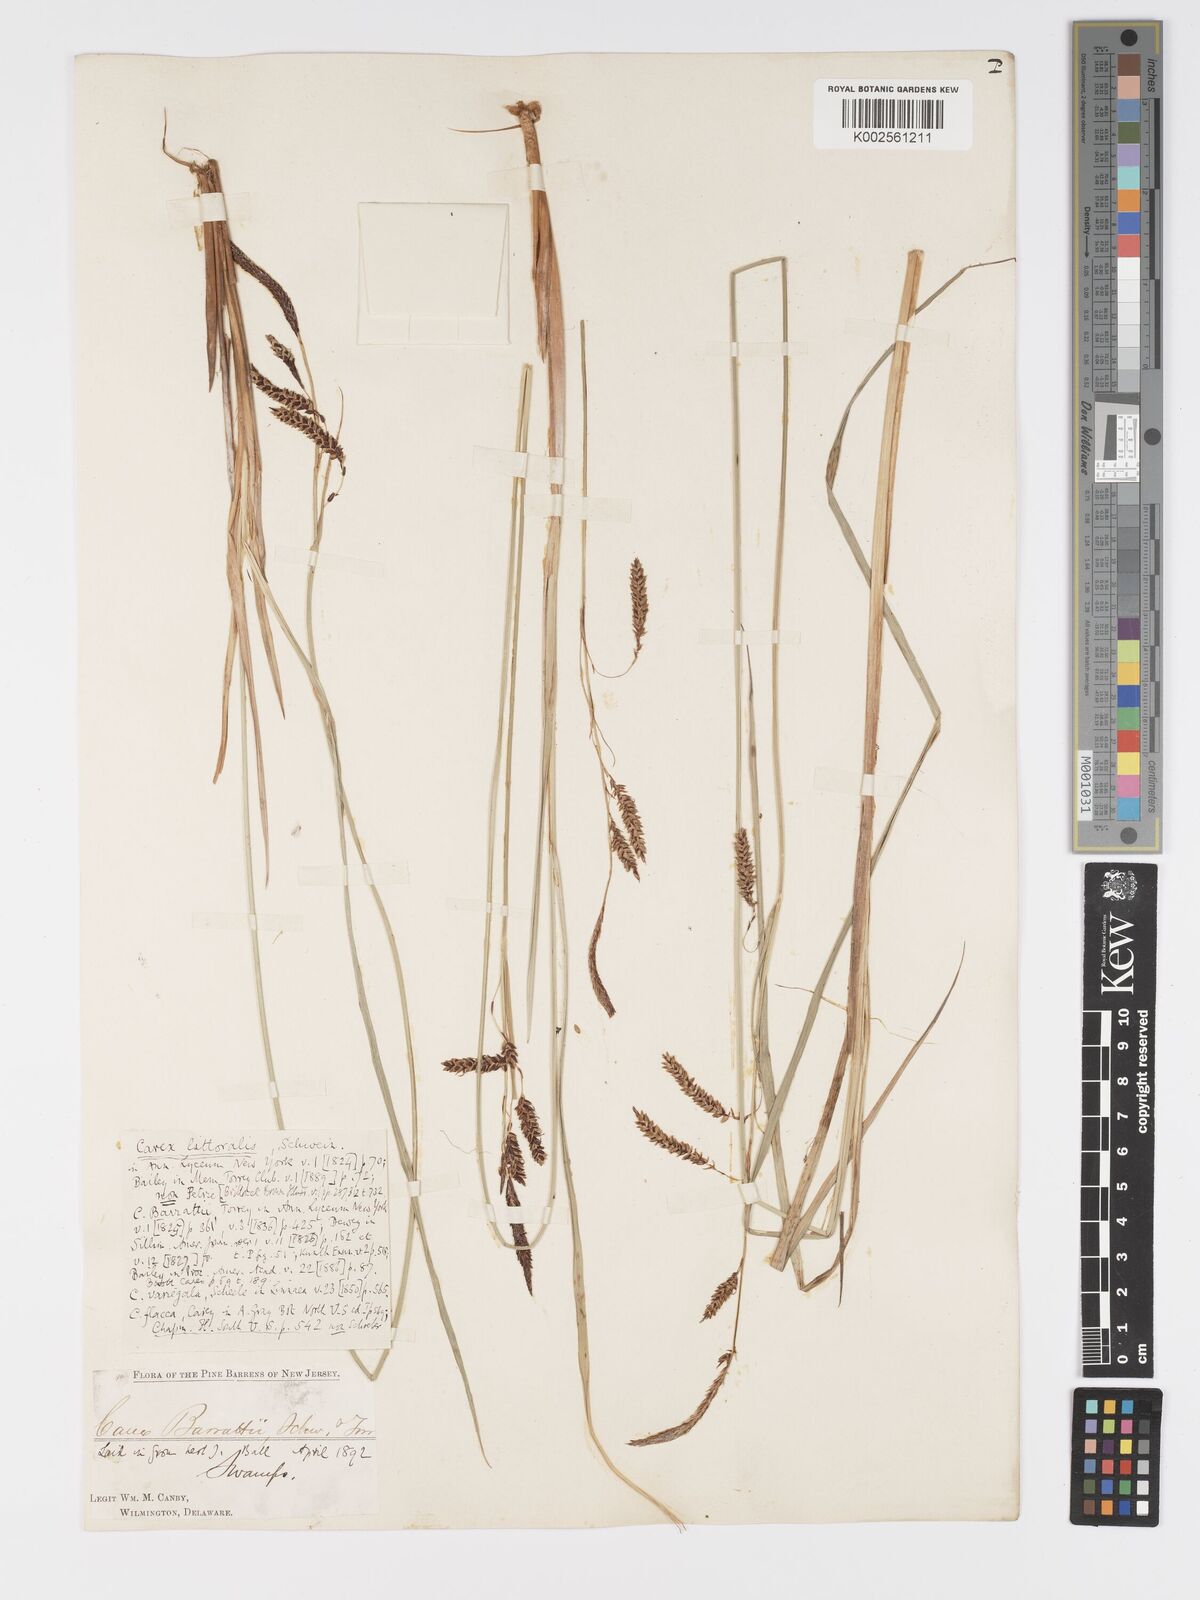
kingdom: Plantae
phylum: Tracheophyta
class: Liliopsida
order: Poales
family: Cyperaceae
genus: Carex
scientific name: Carex barrattii
